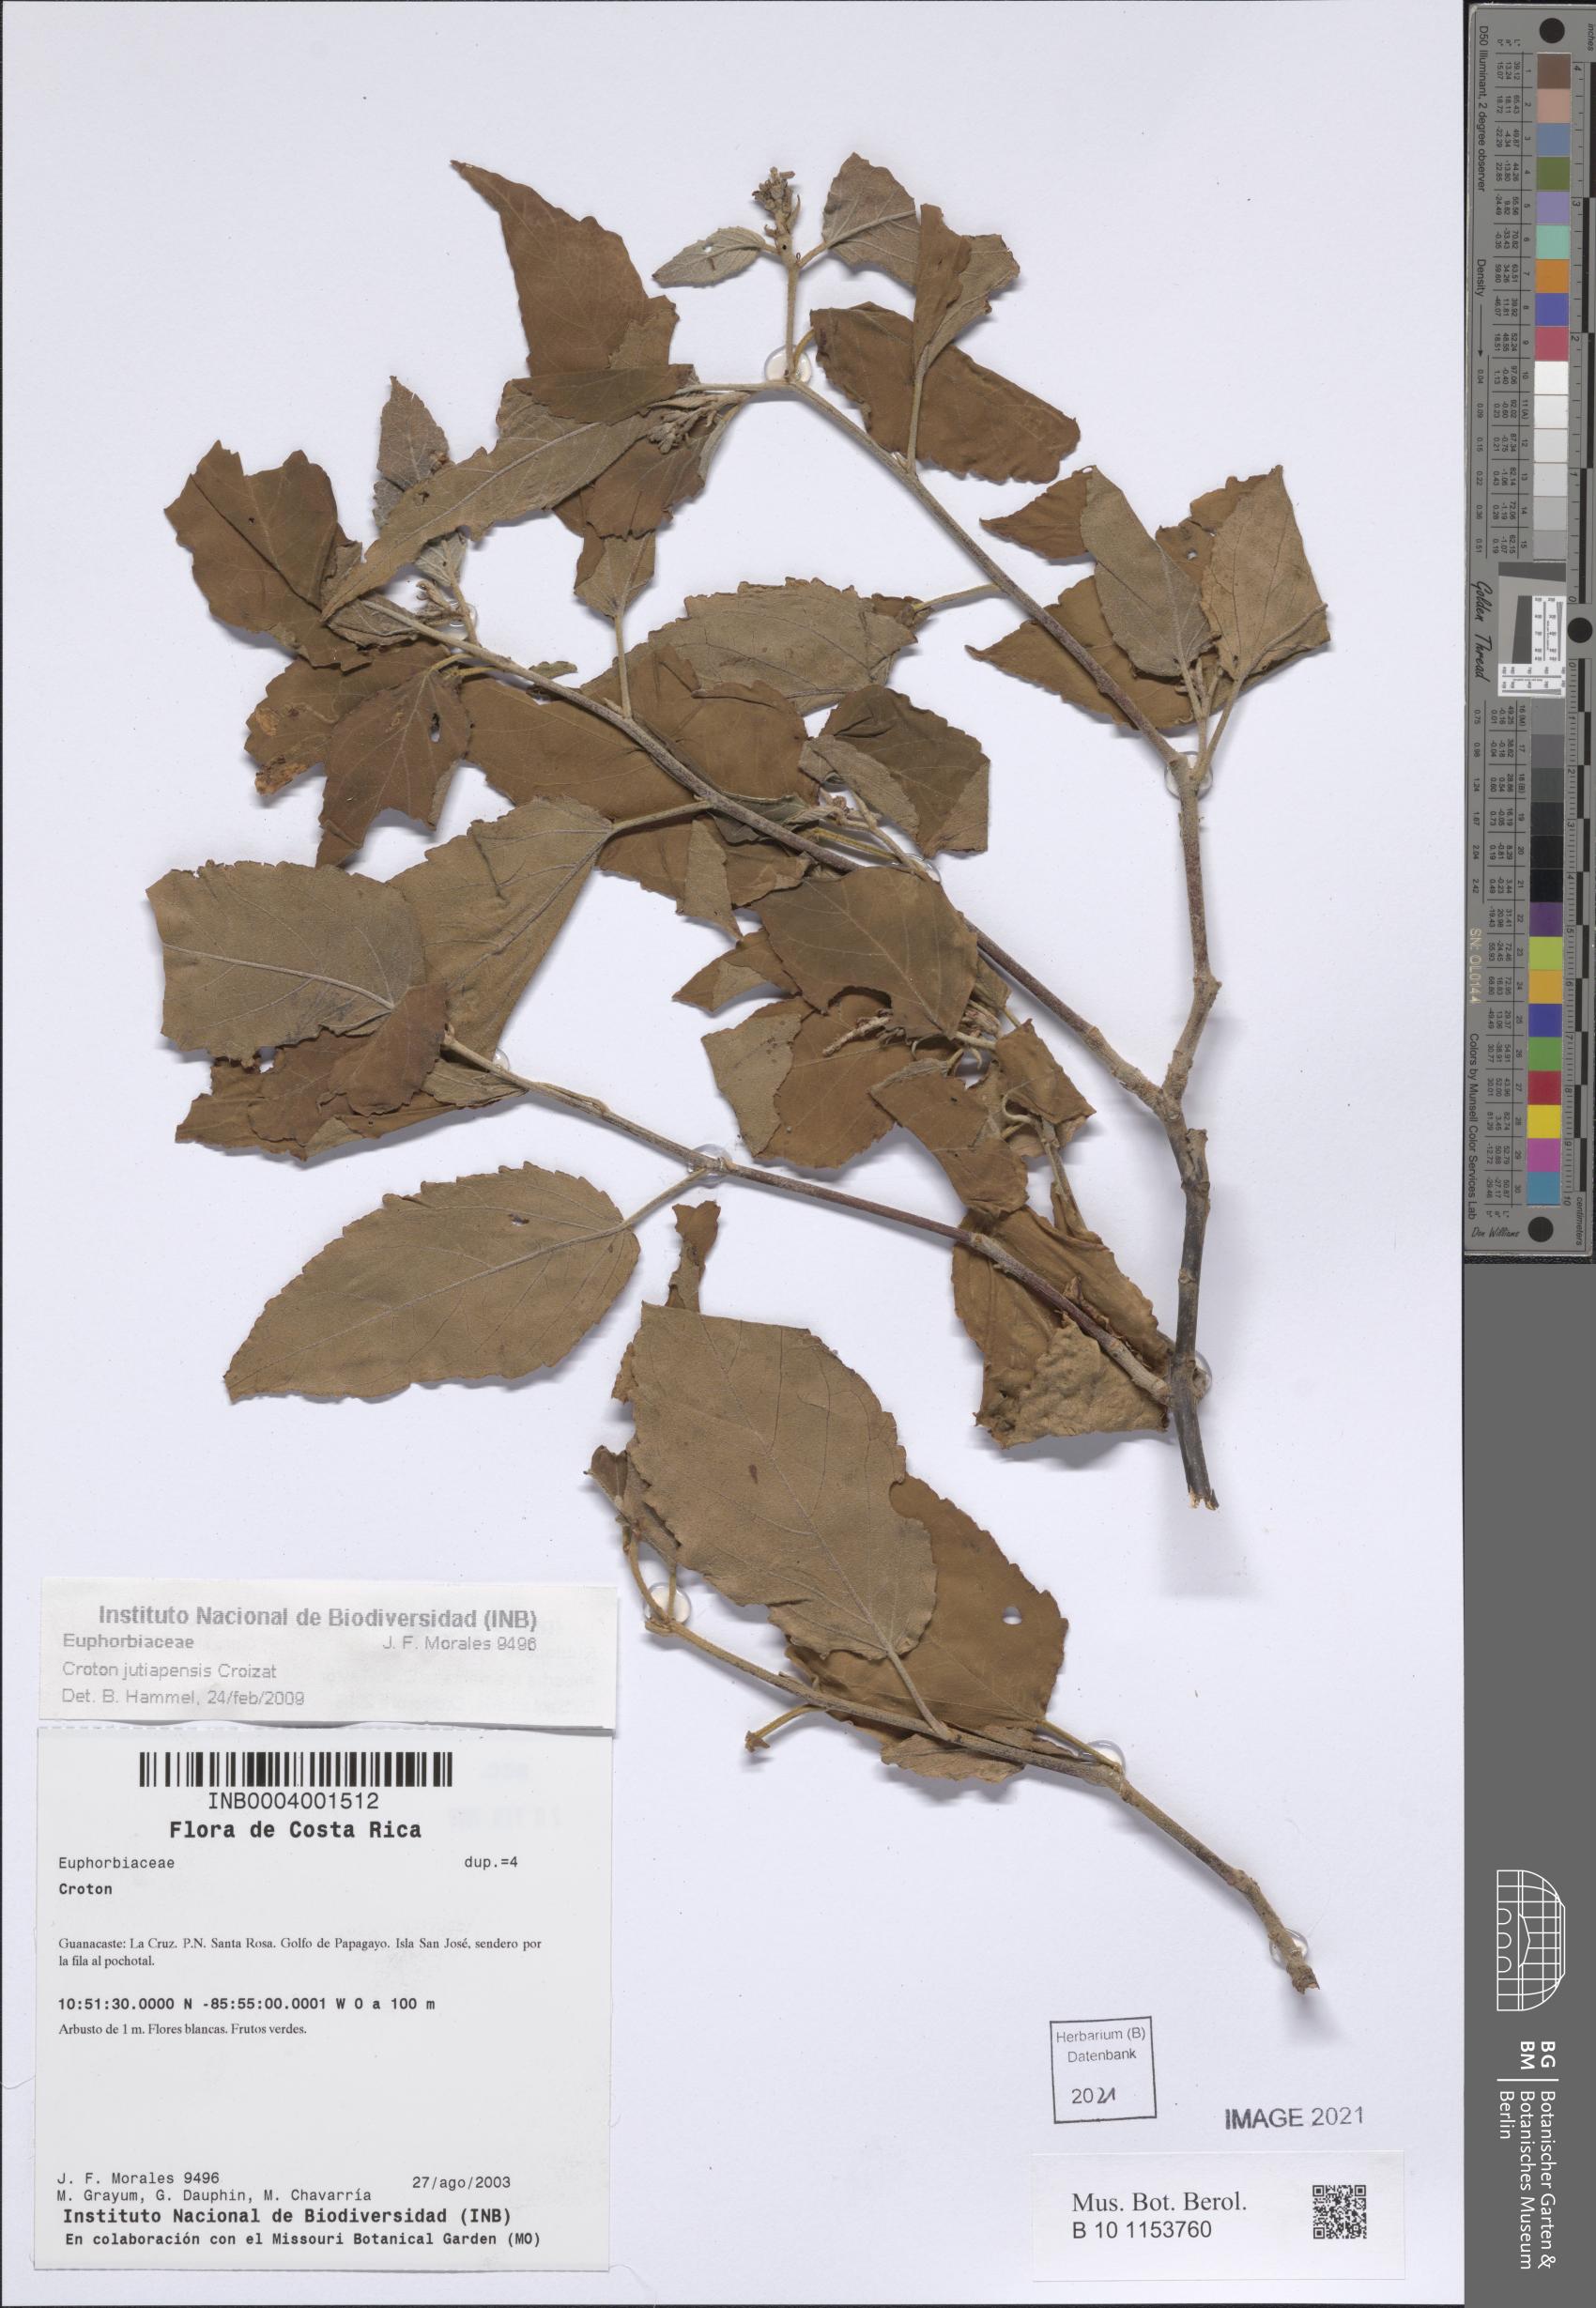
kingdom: Plantae
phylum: Tracheophyta
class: Magnoliopsida
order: Malpighiales
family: Euphorbiaceae
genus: Croton
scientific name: Croton jutiapensis
